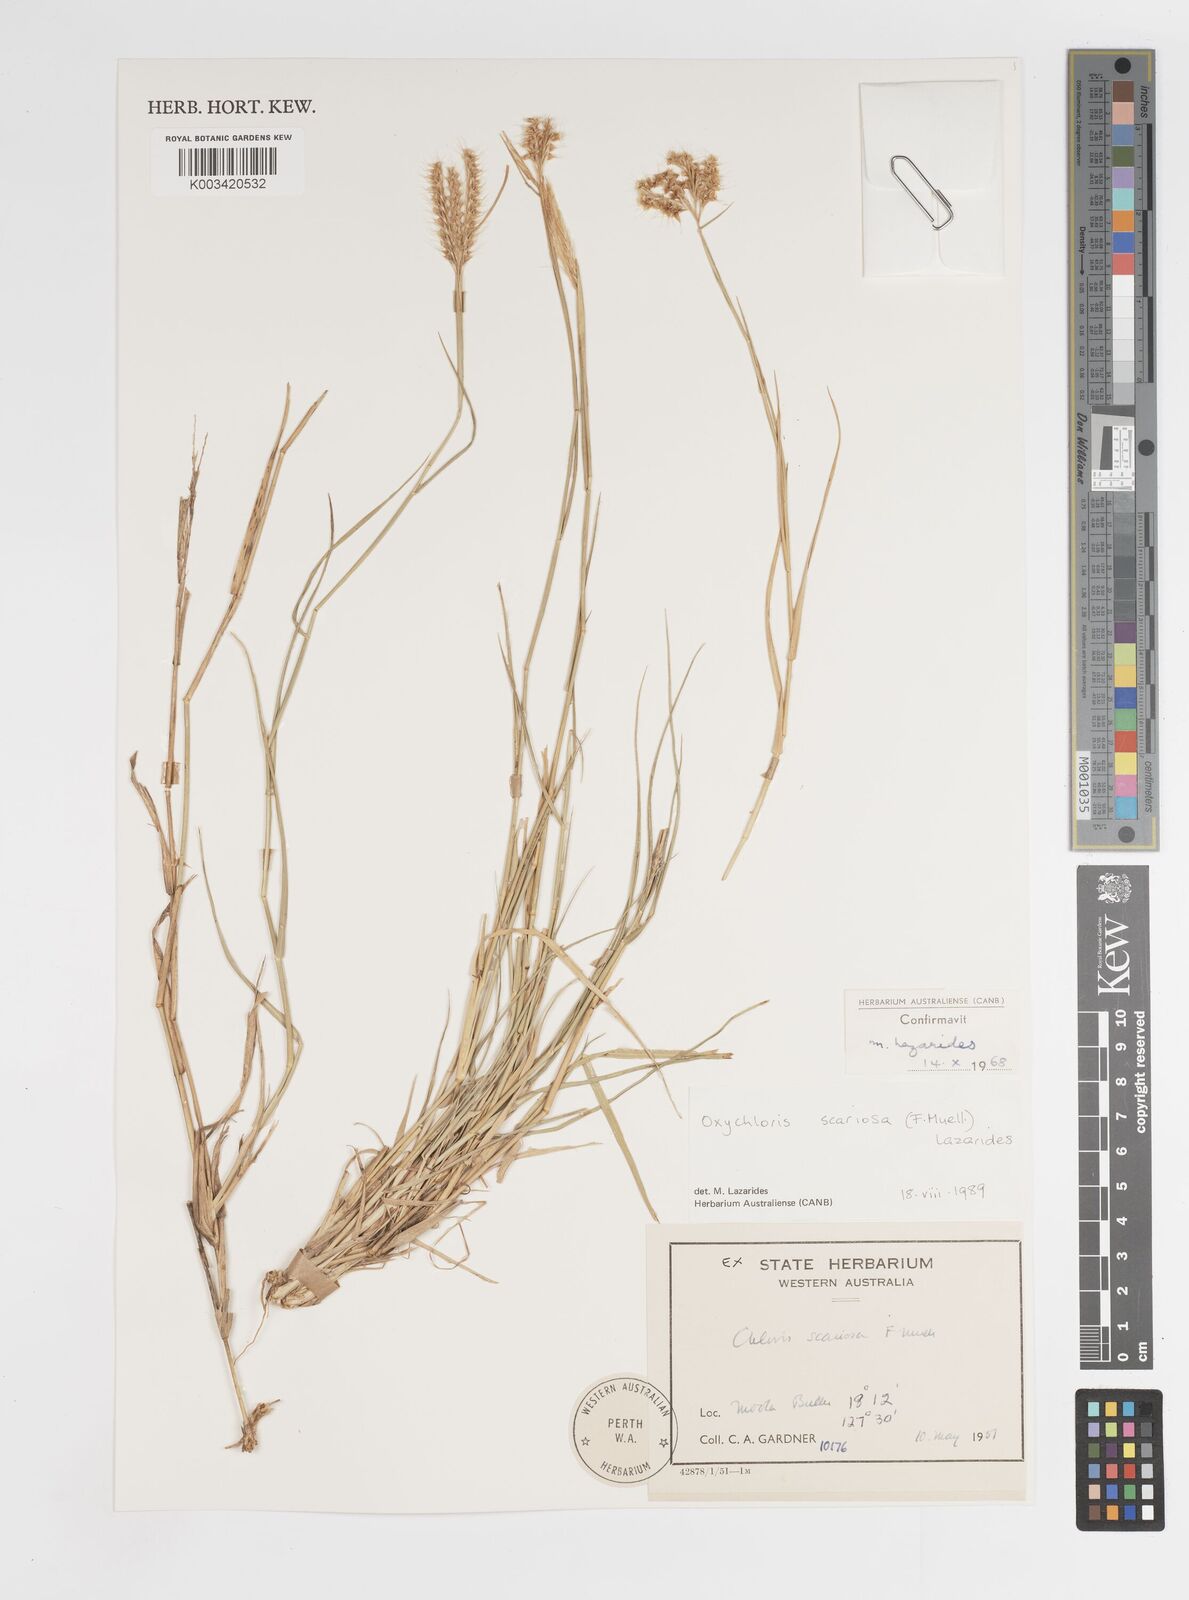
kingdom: Plantae
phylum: Tracheophyta
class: Liliopsida
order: Poales
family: Poaceae
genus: Oxychloris
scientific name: Oxychloris scariosa
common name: Winged windmill grass
